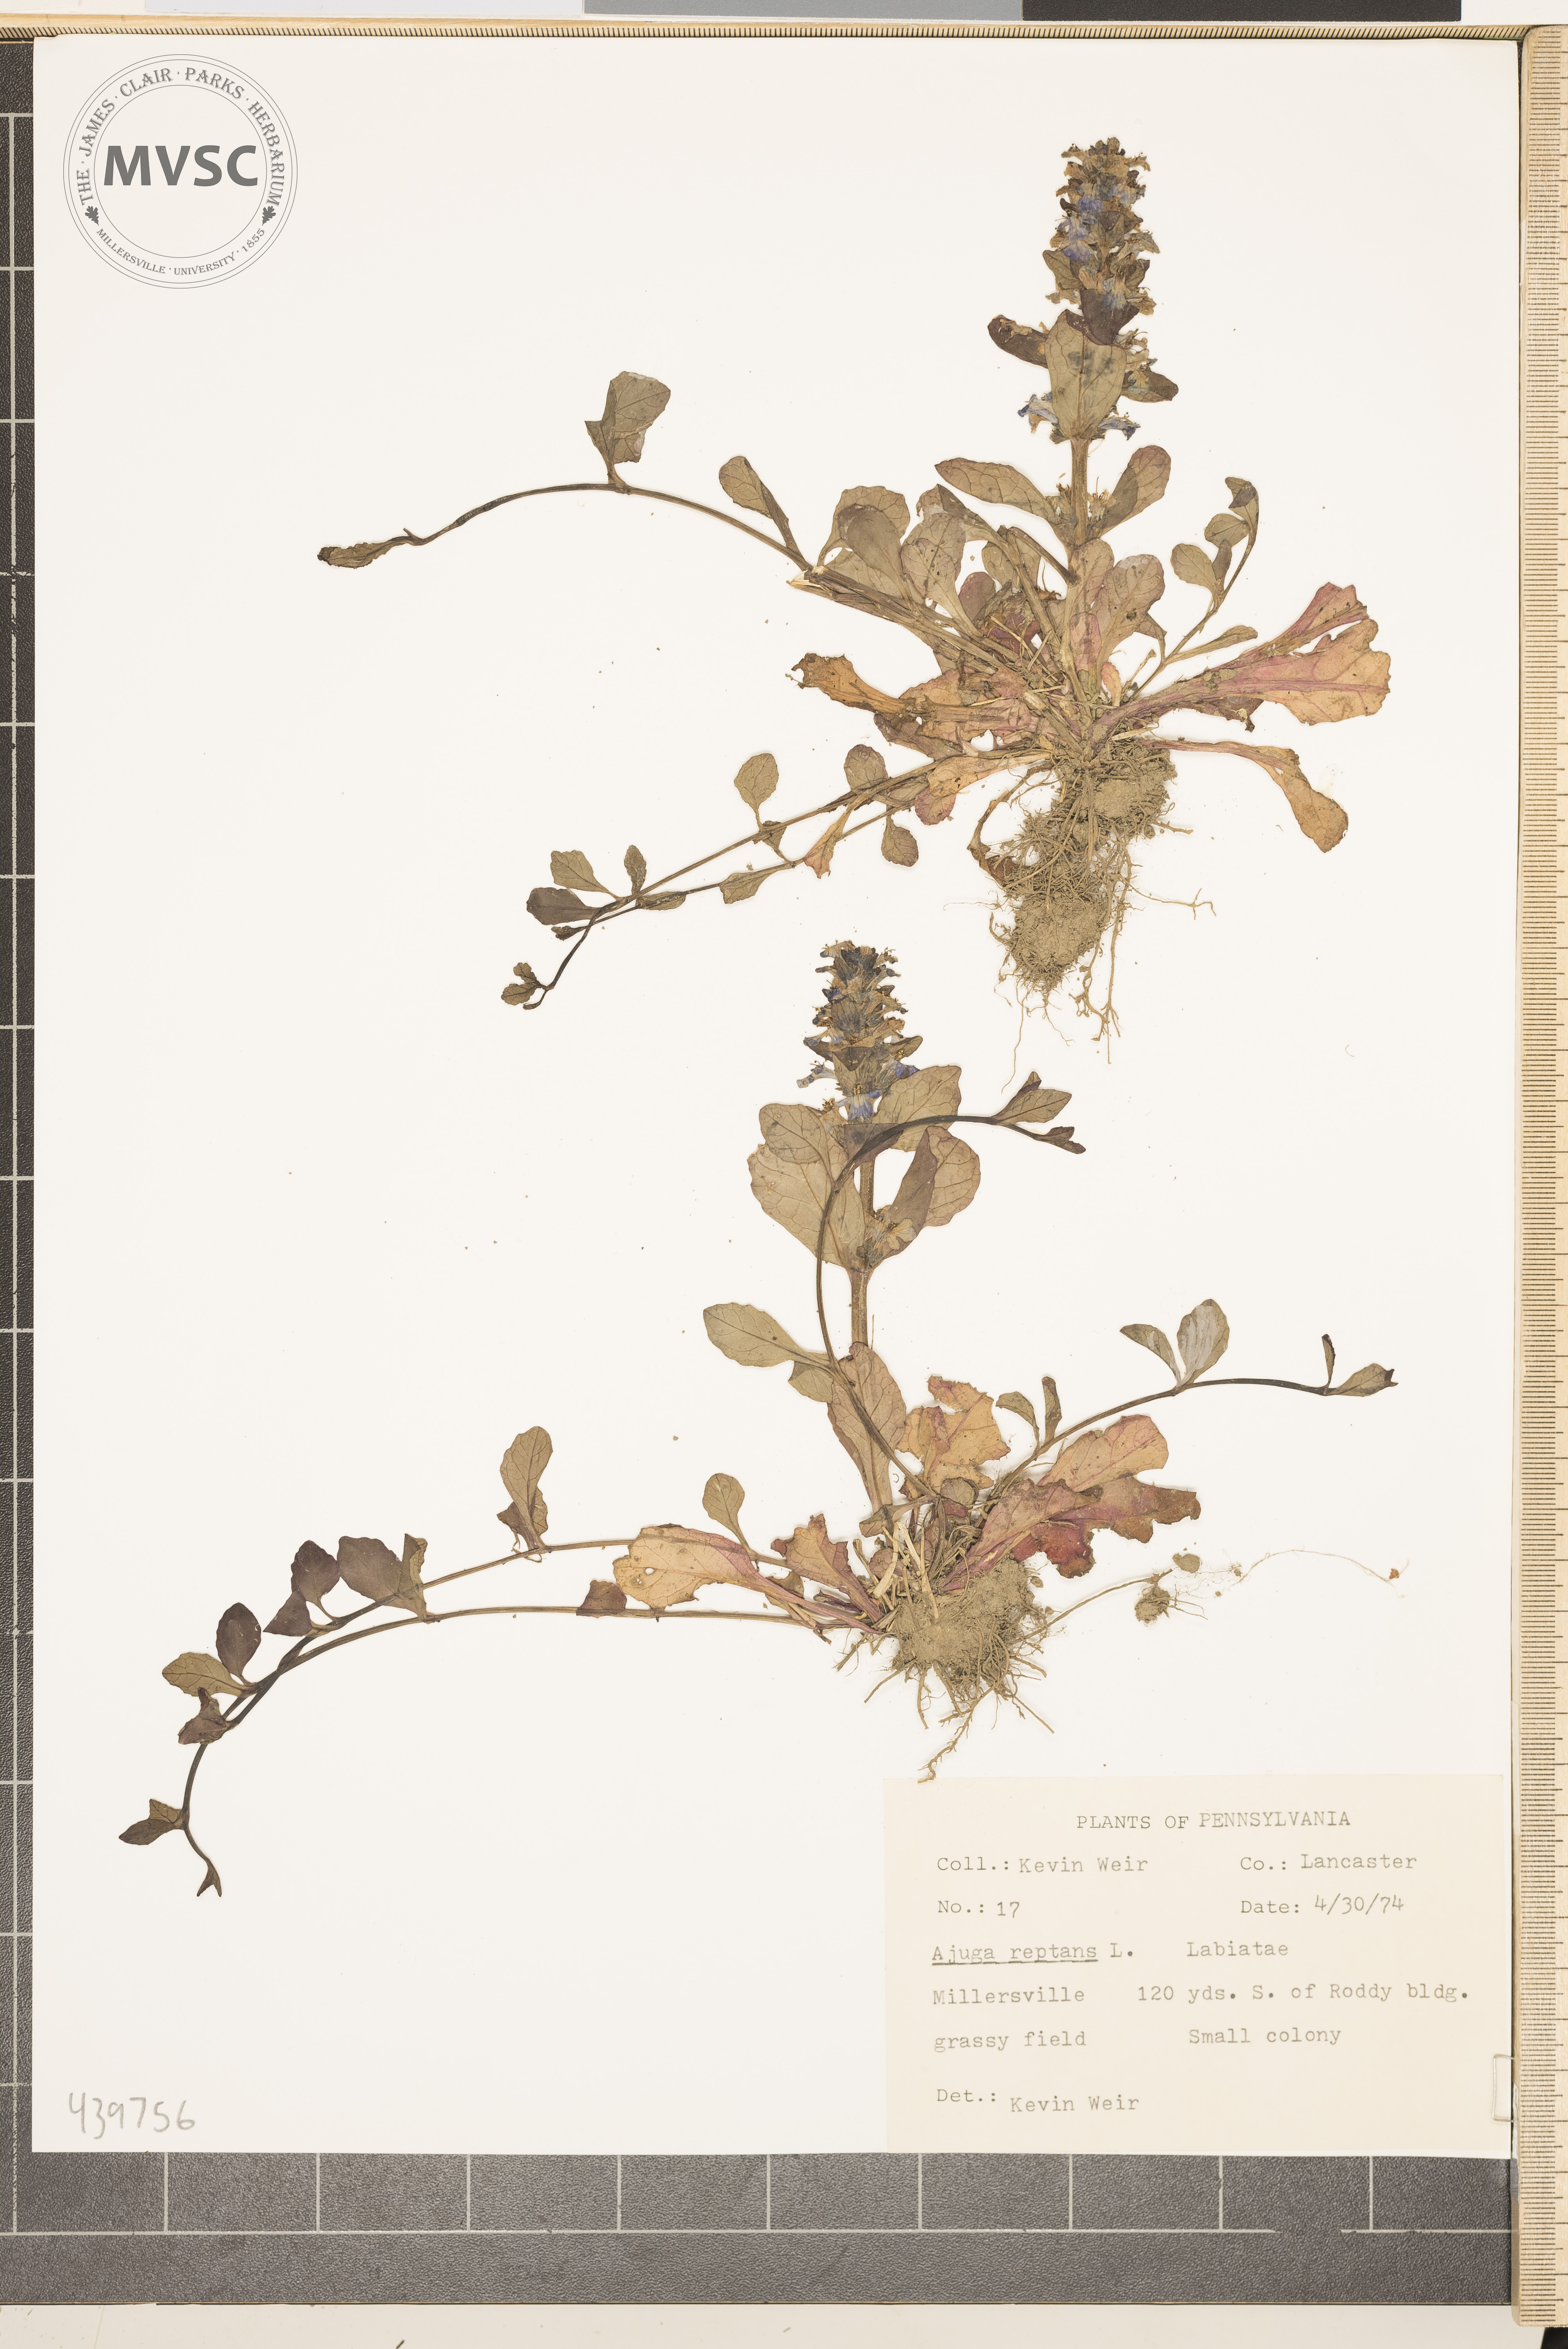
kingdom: Plantae
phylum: Tracheophyta
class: Magnoliopsida
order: Lamiales
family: Lamiaceae
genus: Ajuga
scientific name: Ajuga reptans
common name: Bugle
